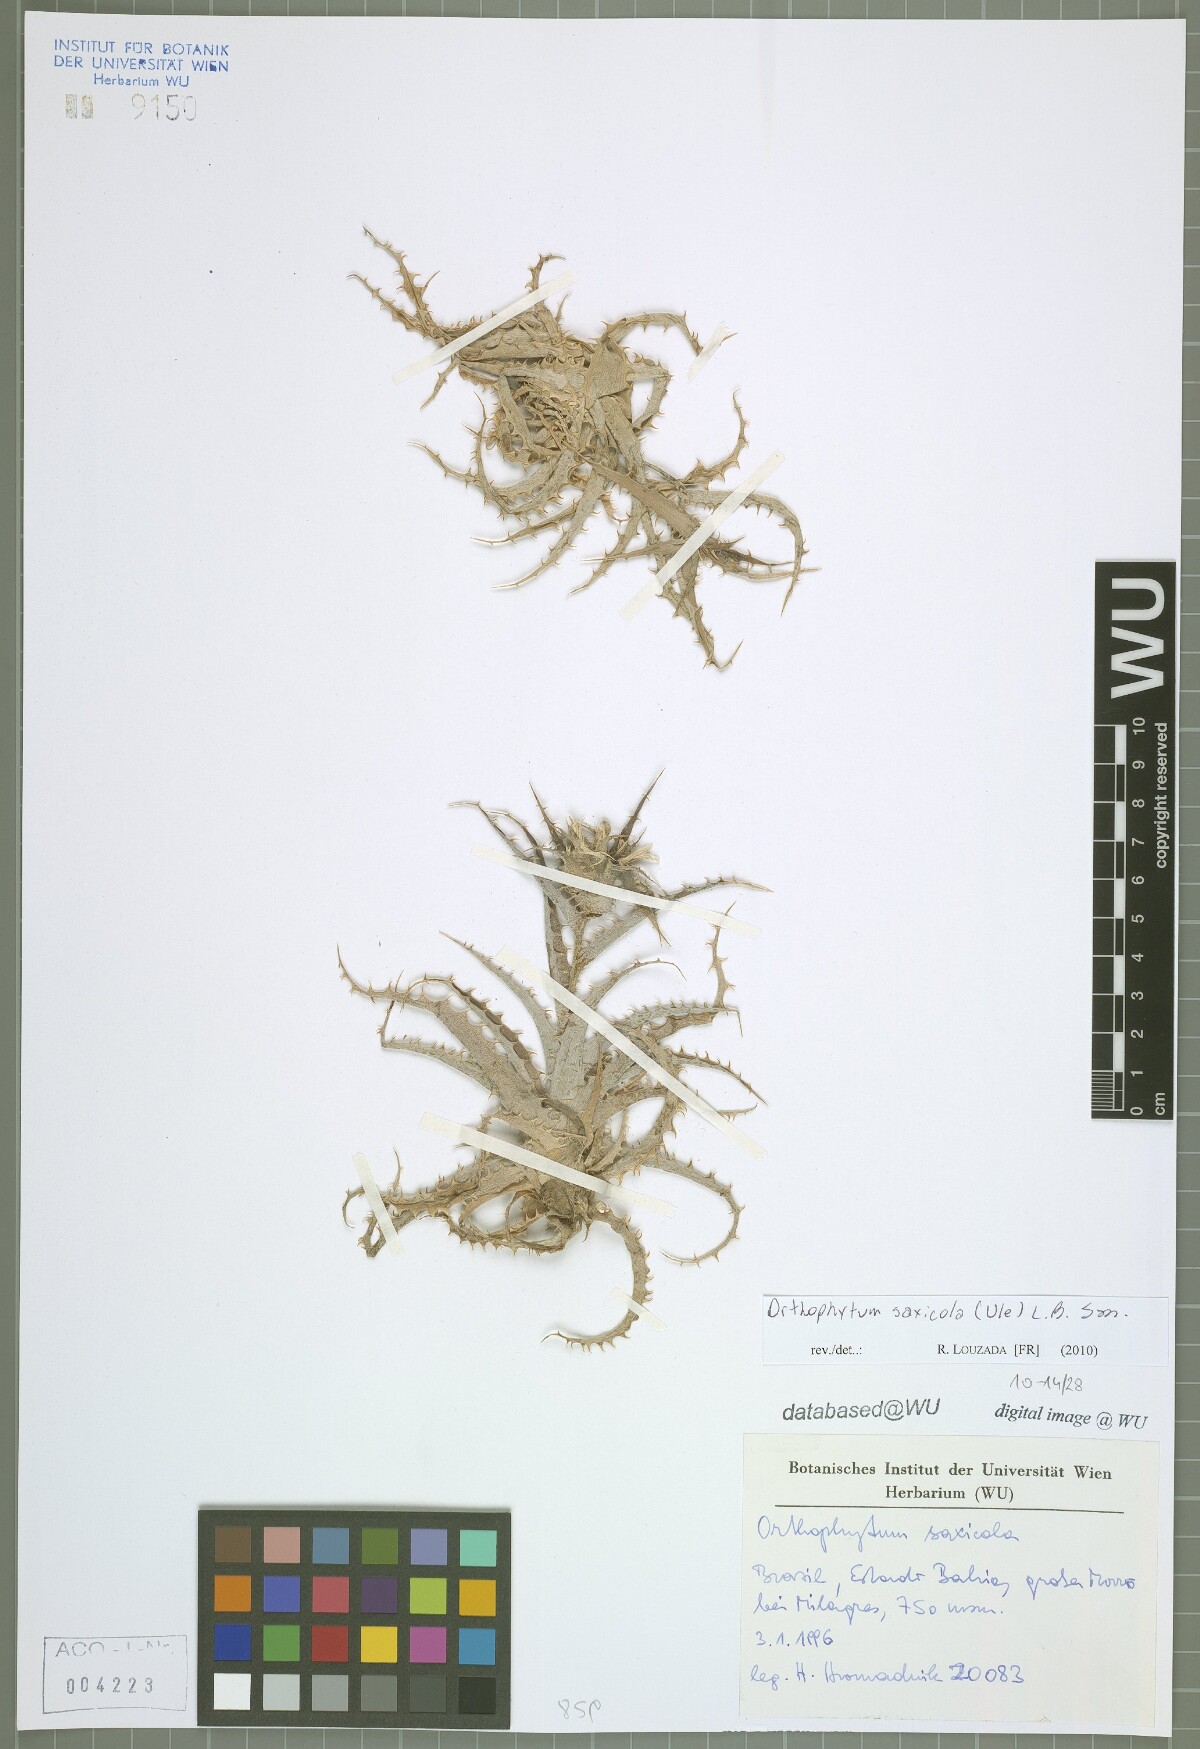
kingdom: Plantae
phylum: Tracheophyta
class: Liliopsida
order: Poales
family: Bromeliaceae
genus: Orthophytum
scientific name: Orthophytum saxicola
